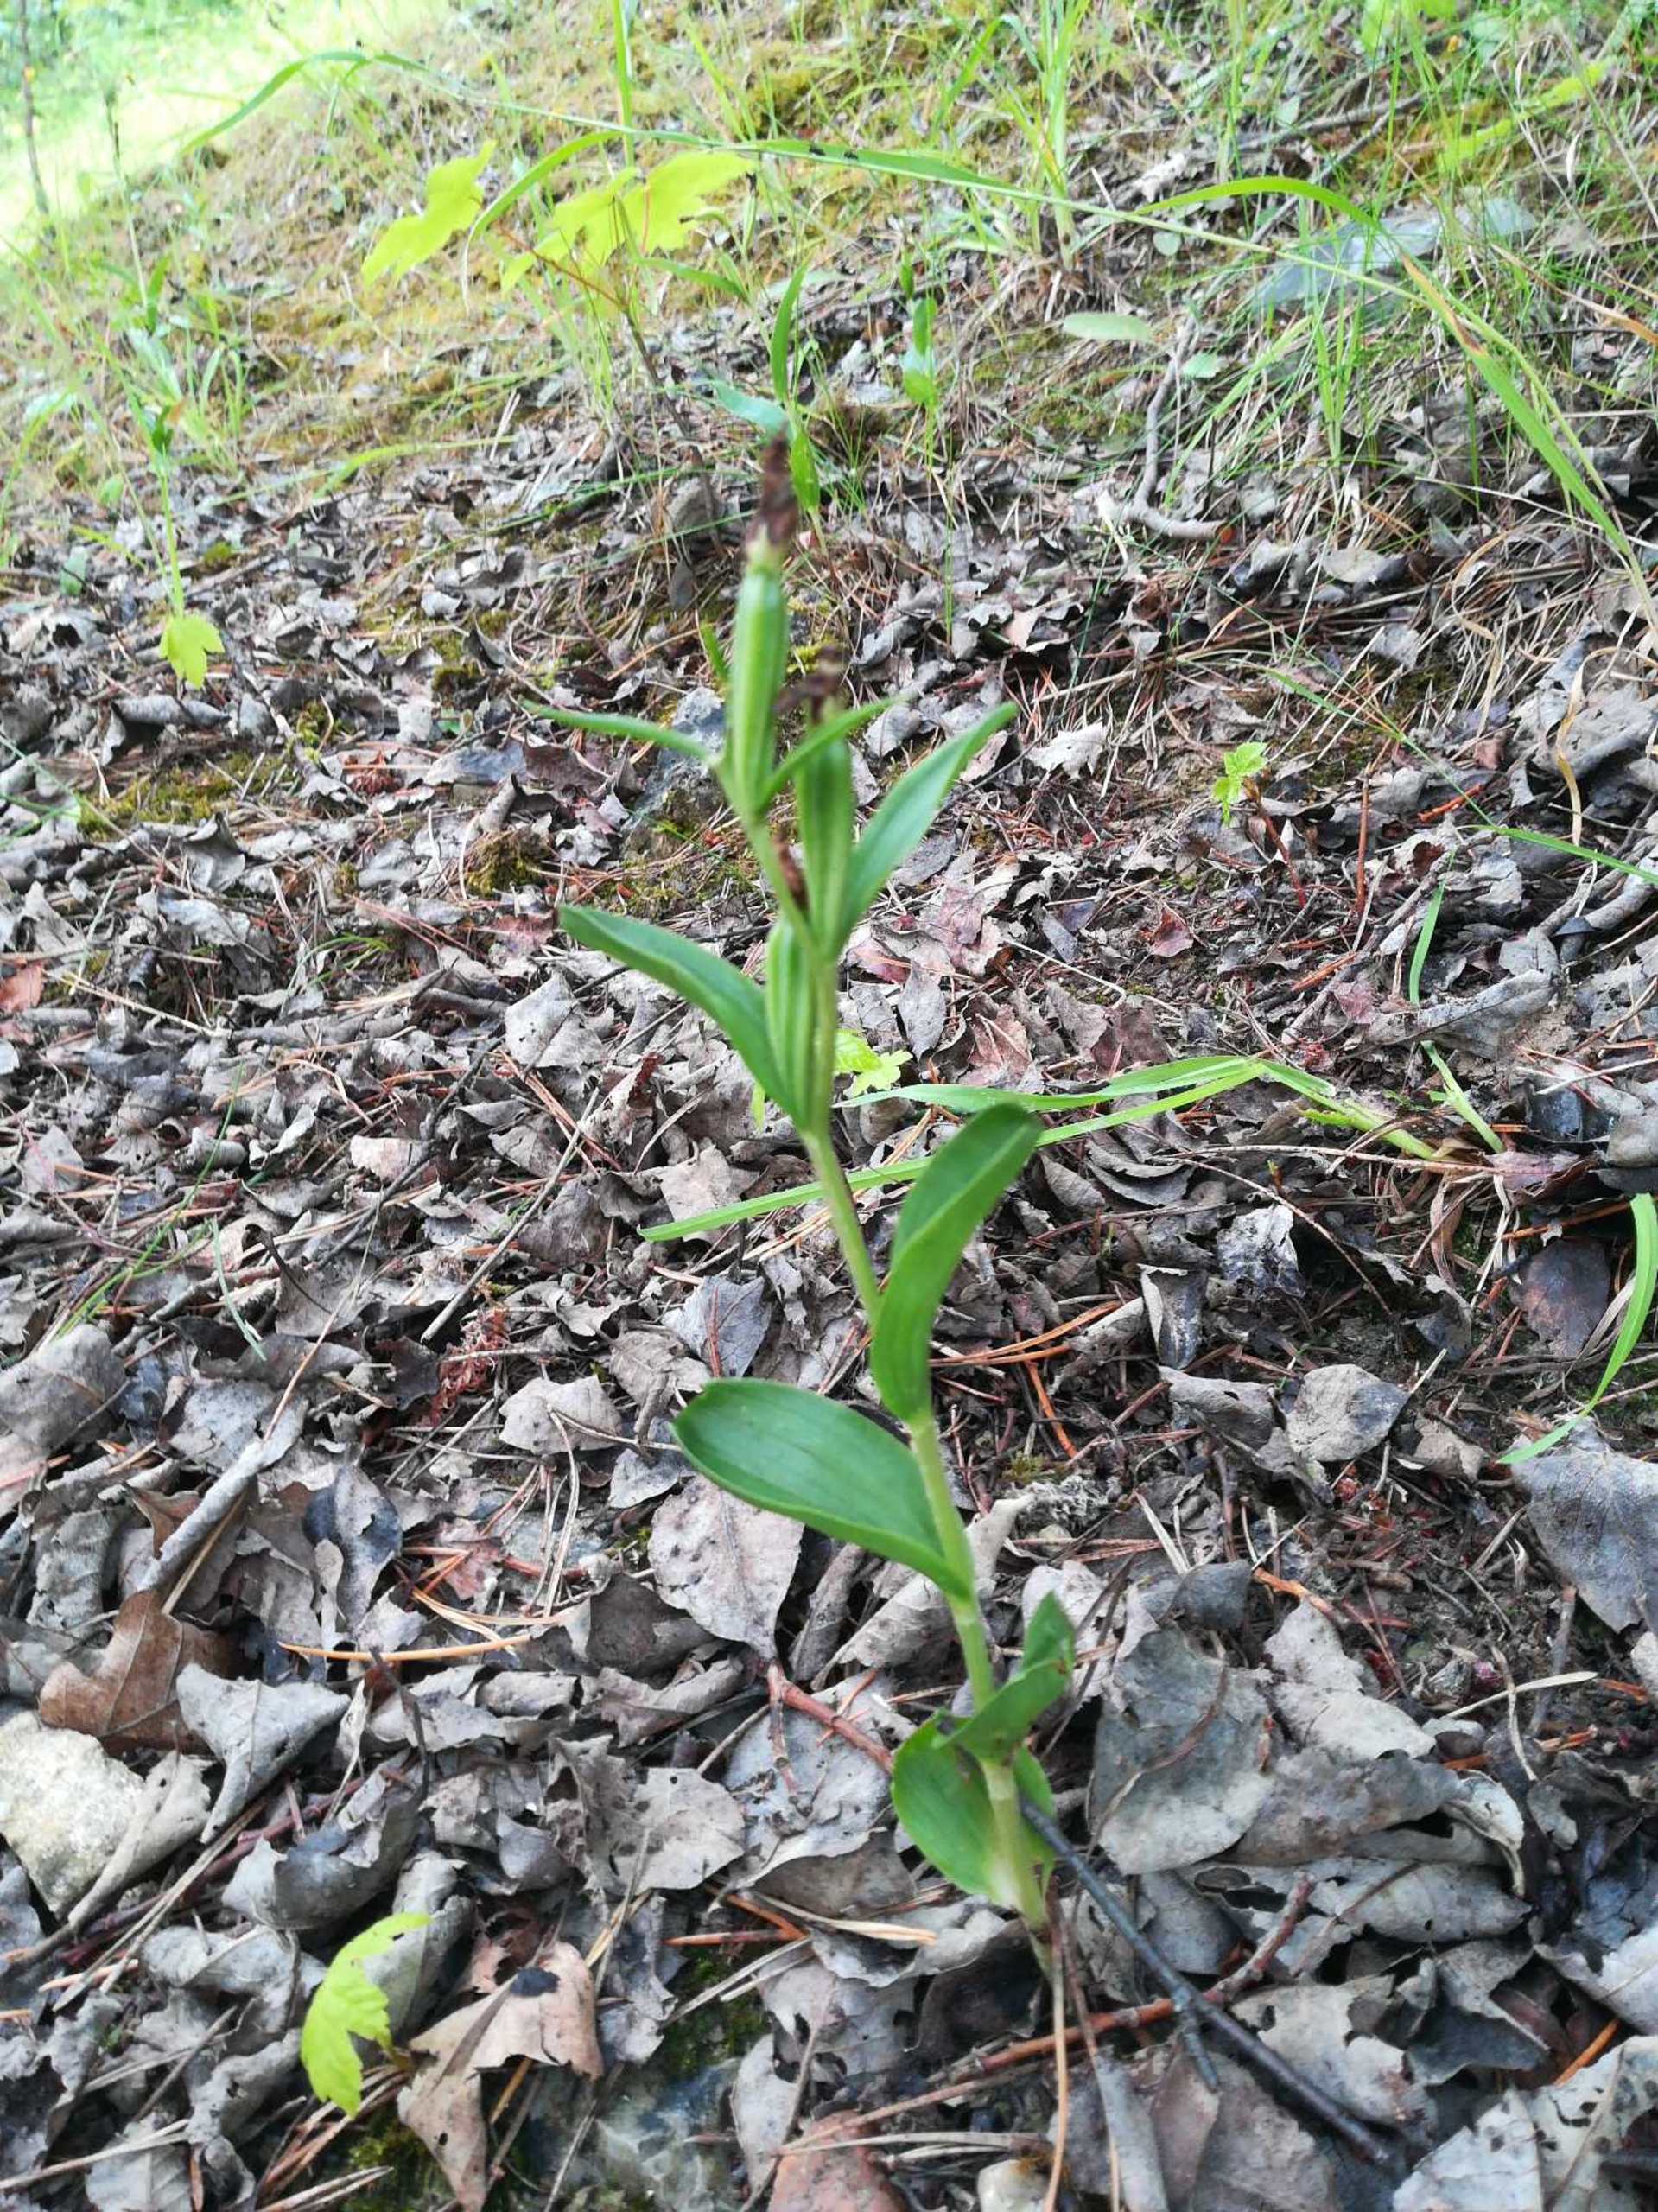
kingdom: Plantae
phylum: Tracheophyta
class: Liliopsida
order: Asparagales
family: Orchidaceae
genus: Cephalanthera
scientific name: Cephalanthera damasonium
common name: Hvidgul skovlilje
